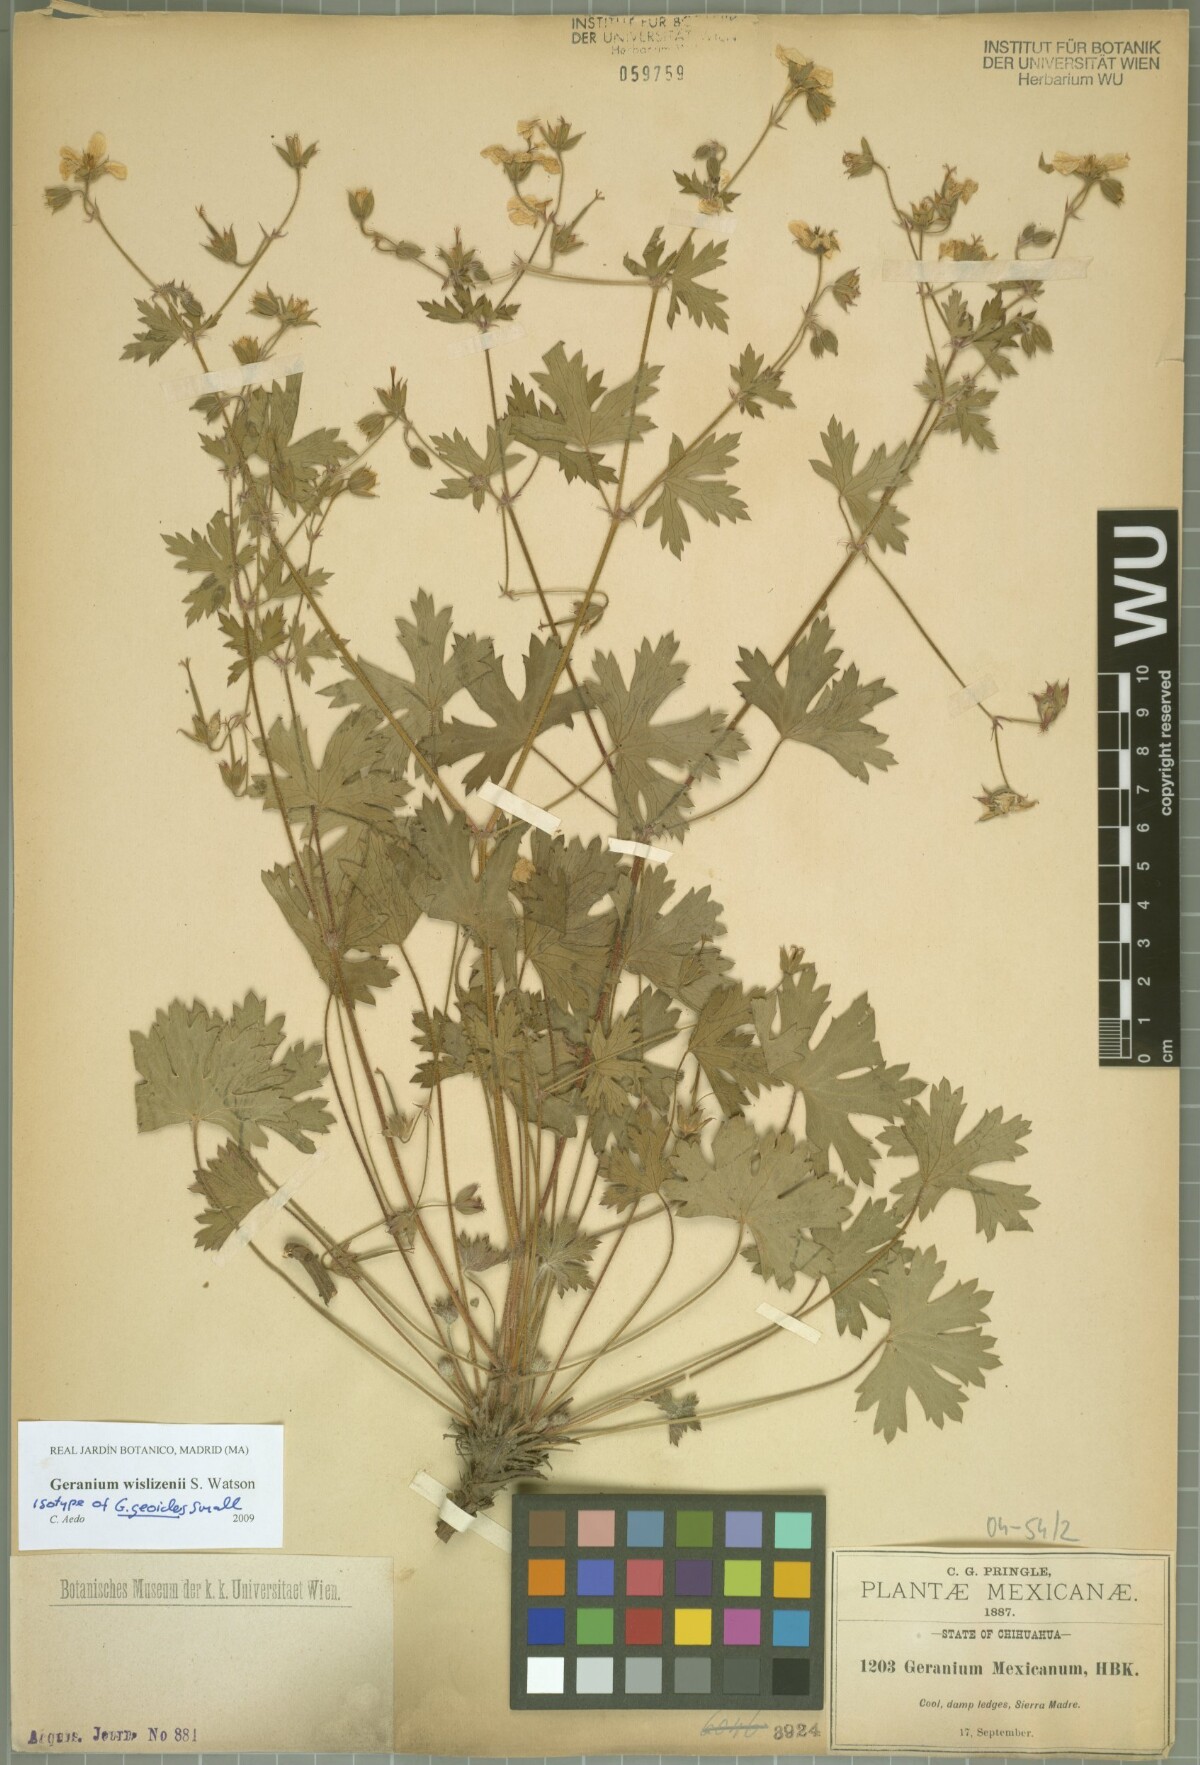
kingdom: Plantae
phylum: Tracheophyta
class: Magnoliopsida
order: Geraniales
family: Geraniaceae
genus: Geranium
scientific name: Geranium wislizeni
